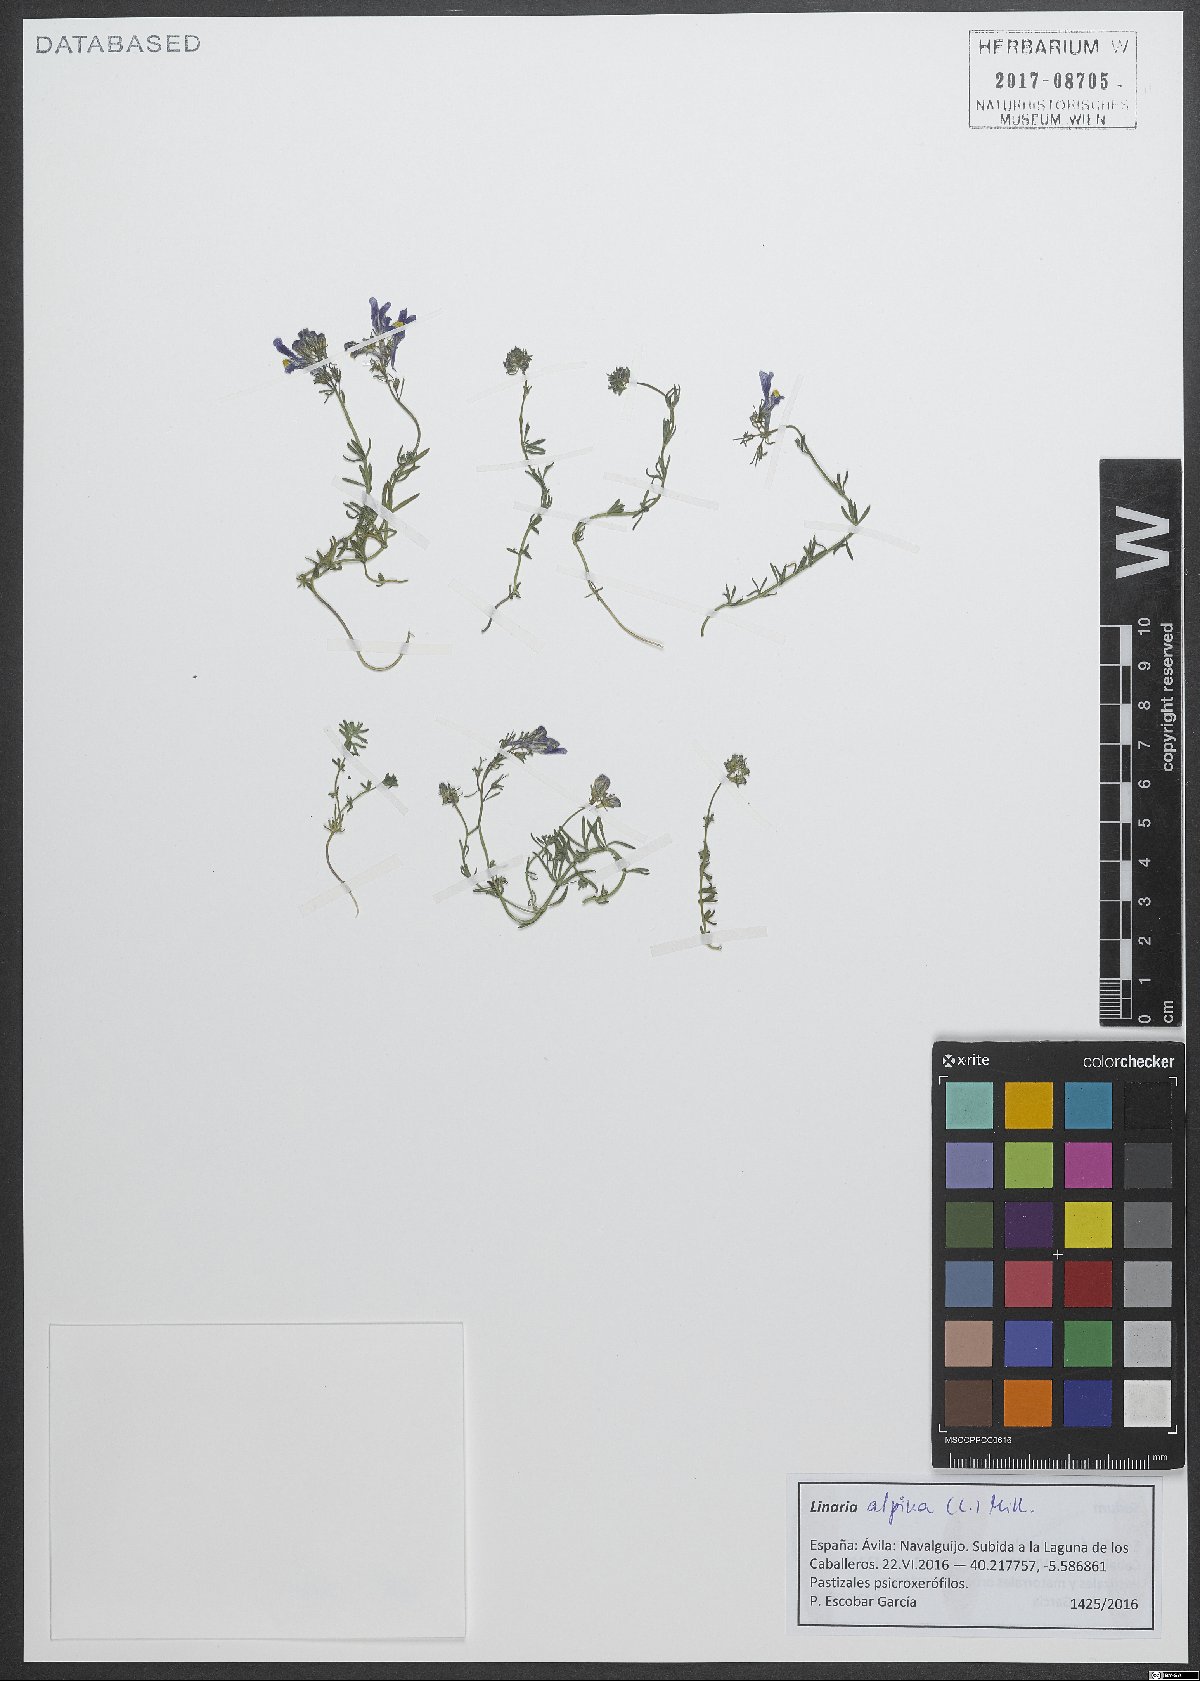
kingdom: Plantae
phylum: Tracheophyta
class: Magnoliopsida
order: Lamiales
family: Plantaginaceae
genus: Linaria
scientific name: Linaria alpina
